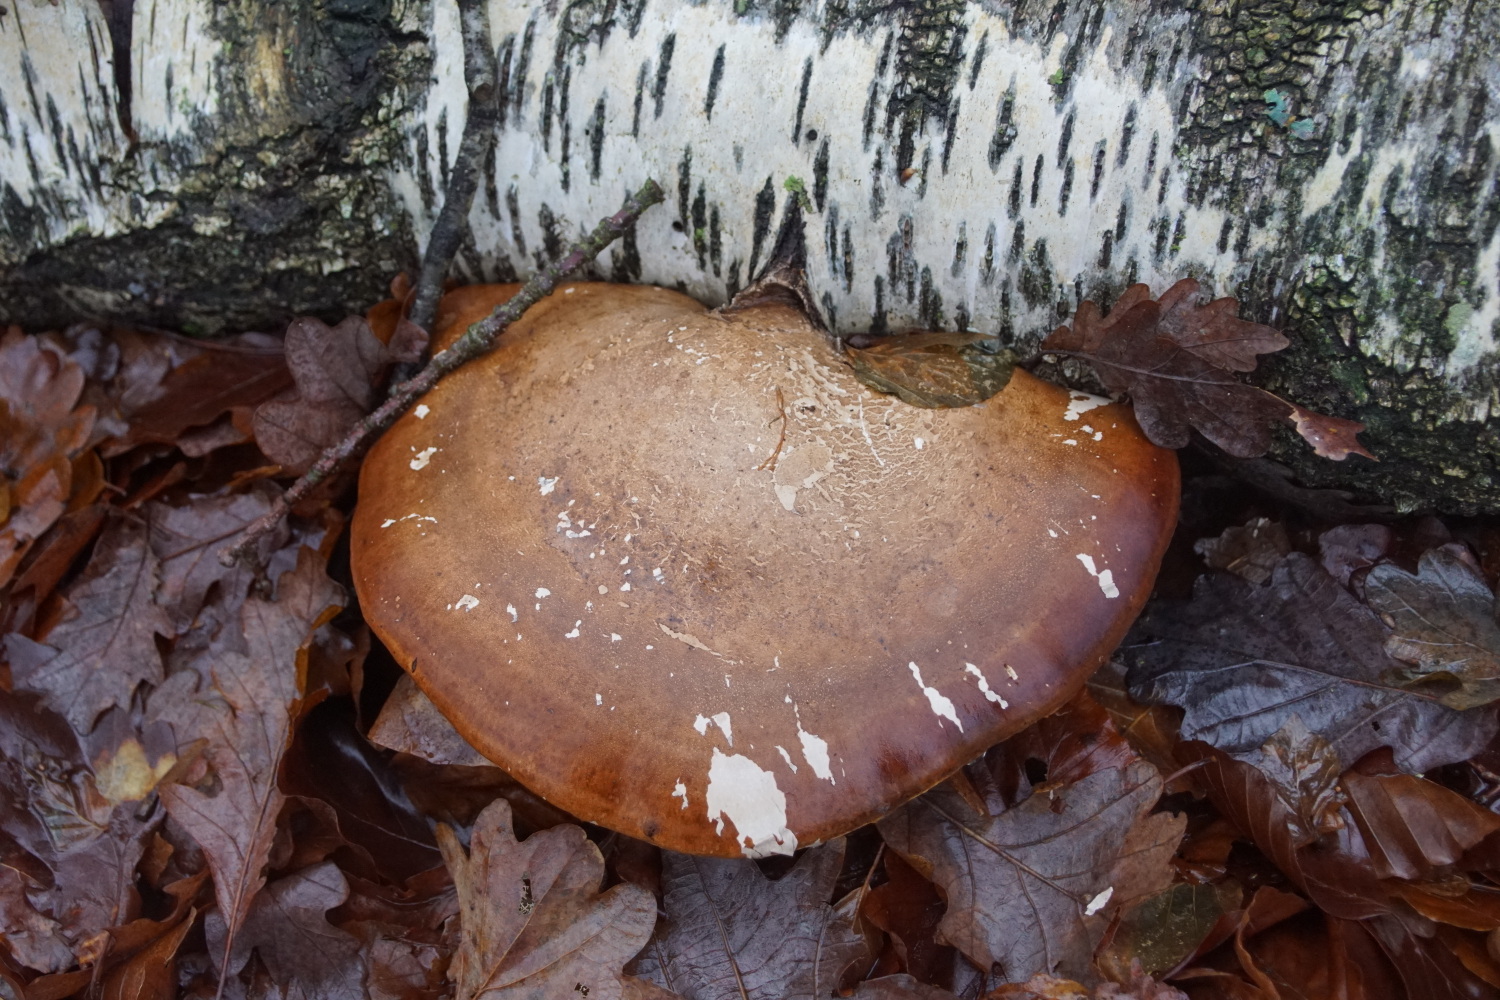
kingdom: Fungi
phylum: Basidiomycota
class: Agaricomycetes
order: Polyporales
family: Fomitopsidaceae
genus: Fomitopsis
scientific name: Fomitopsis betulina
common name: birkeporesvamp
